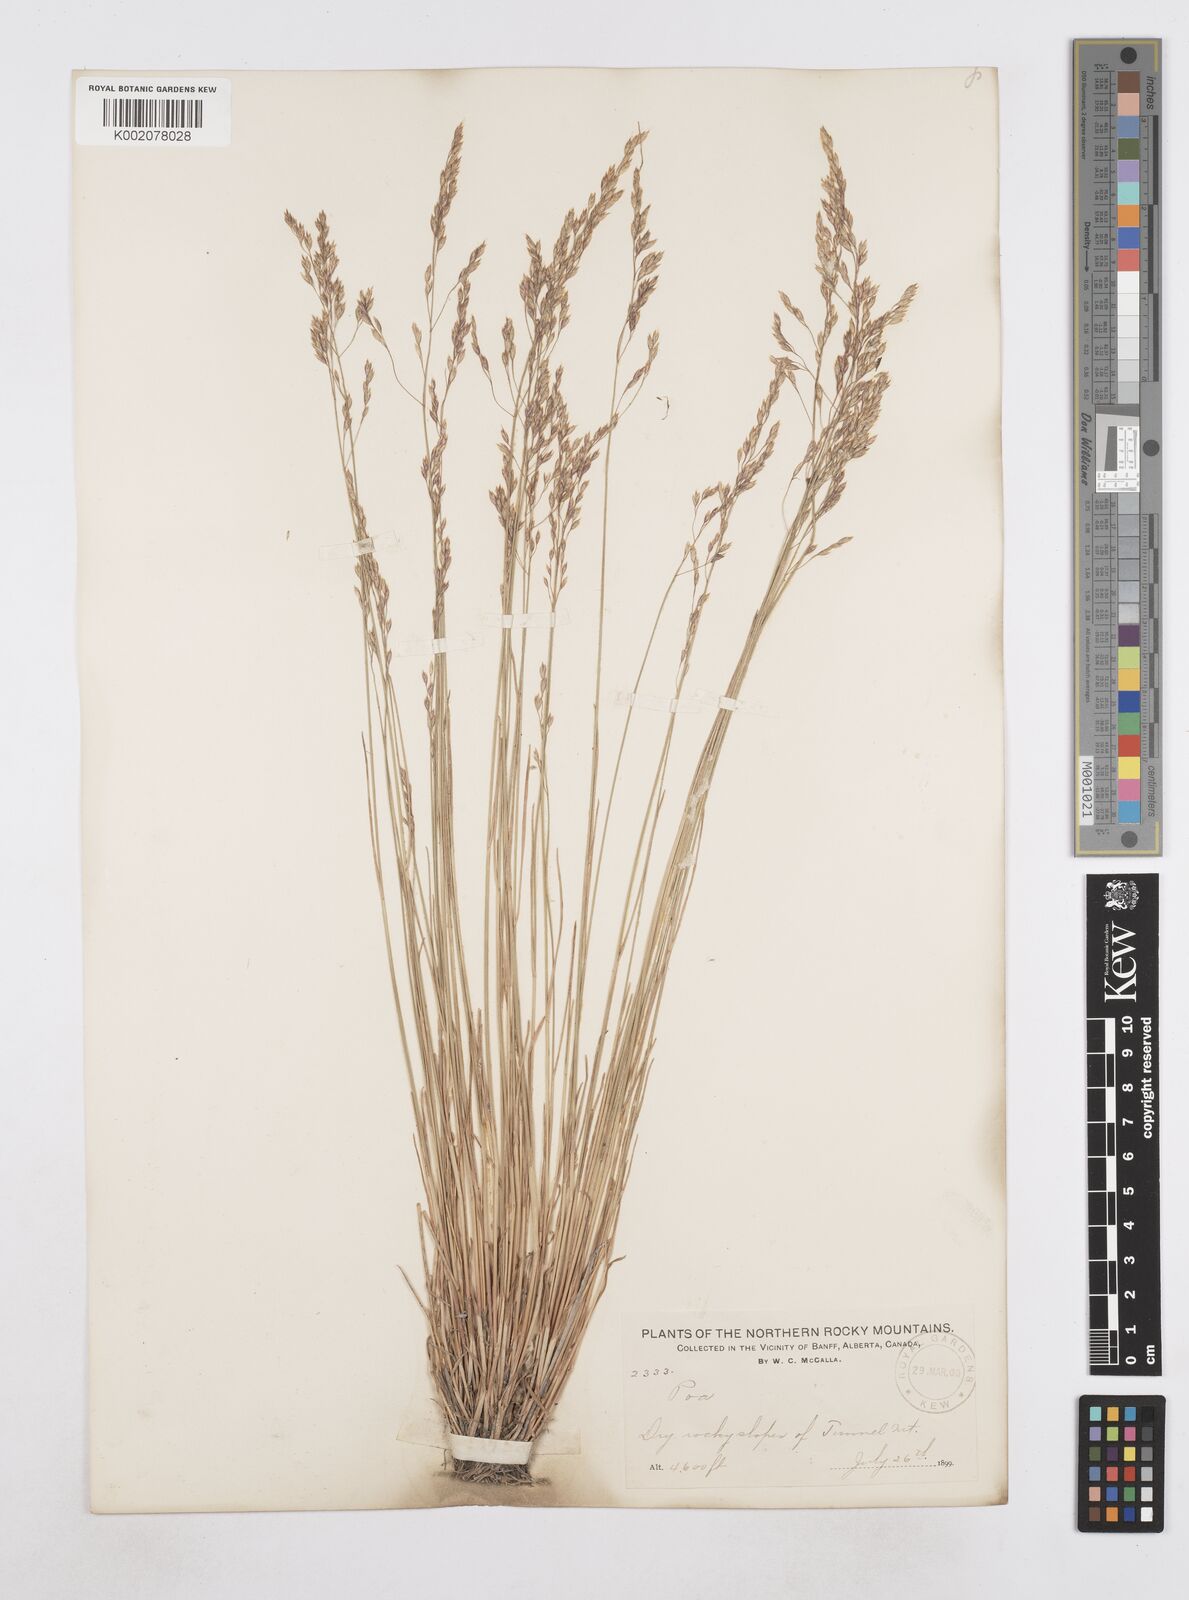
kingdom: Plantae
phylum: Tracheophyta
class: Liliopsida
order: Poales
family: Poaceae
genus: Poa
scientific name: Poa
